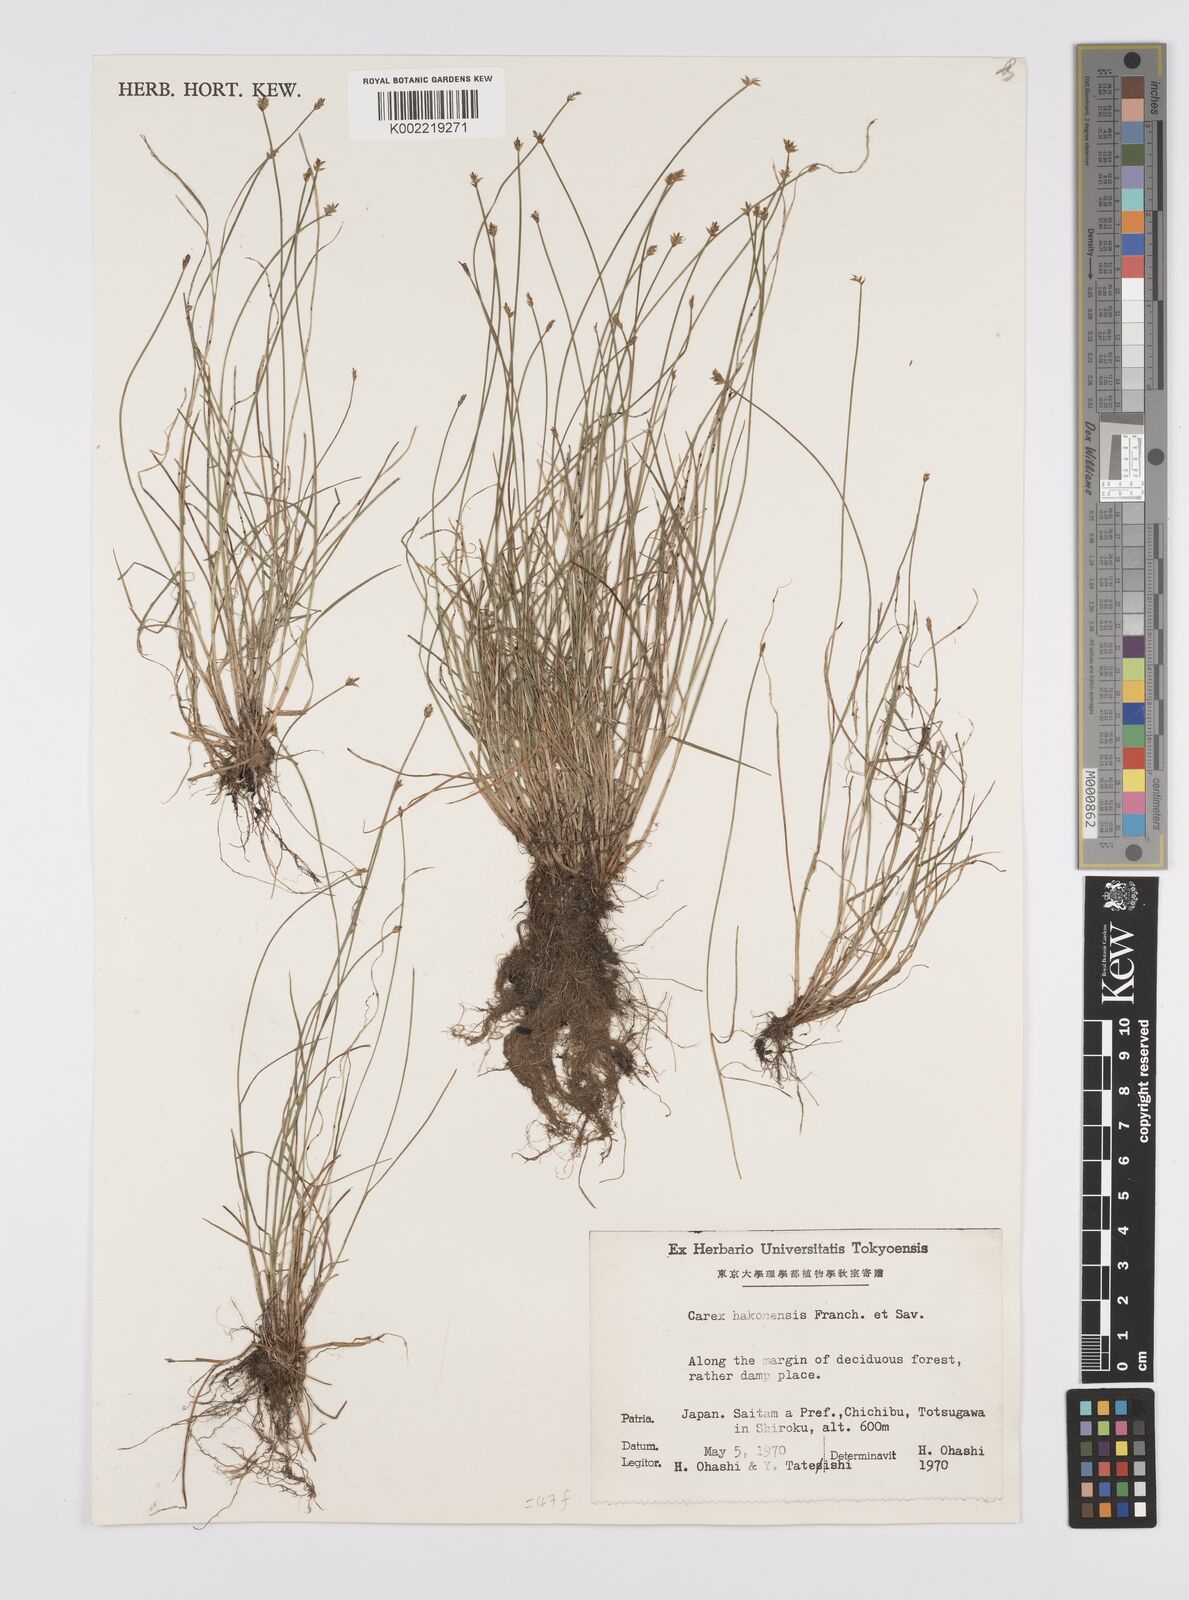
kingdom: Plantae
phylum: Tracheophyta
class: Liliopsida
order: Poales
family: Cyperaceae
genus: Carex
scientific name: Carex onoei
